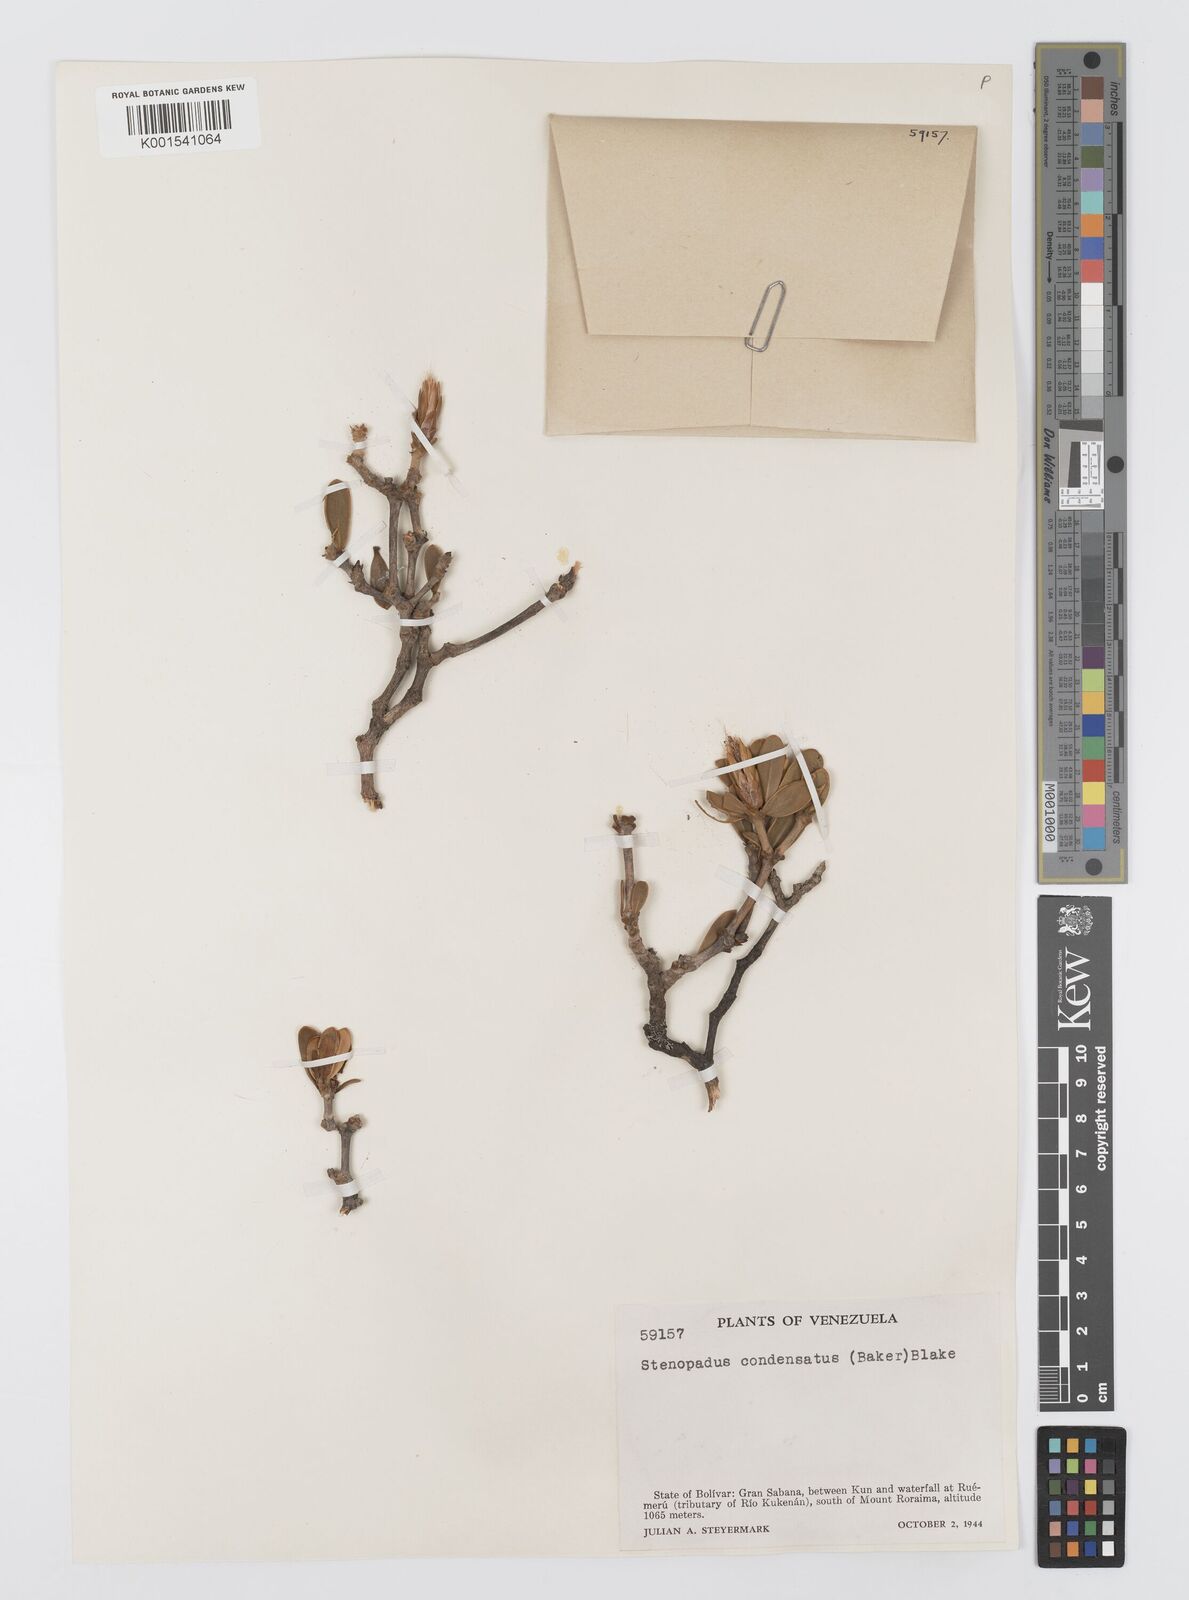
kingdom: Plantae
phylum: Tracheophyta
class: Magnoliopsida
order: Asterales
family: Asteraceae
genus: Stomatochaeta
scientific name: Stomatochaeta condensata
